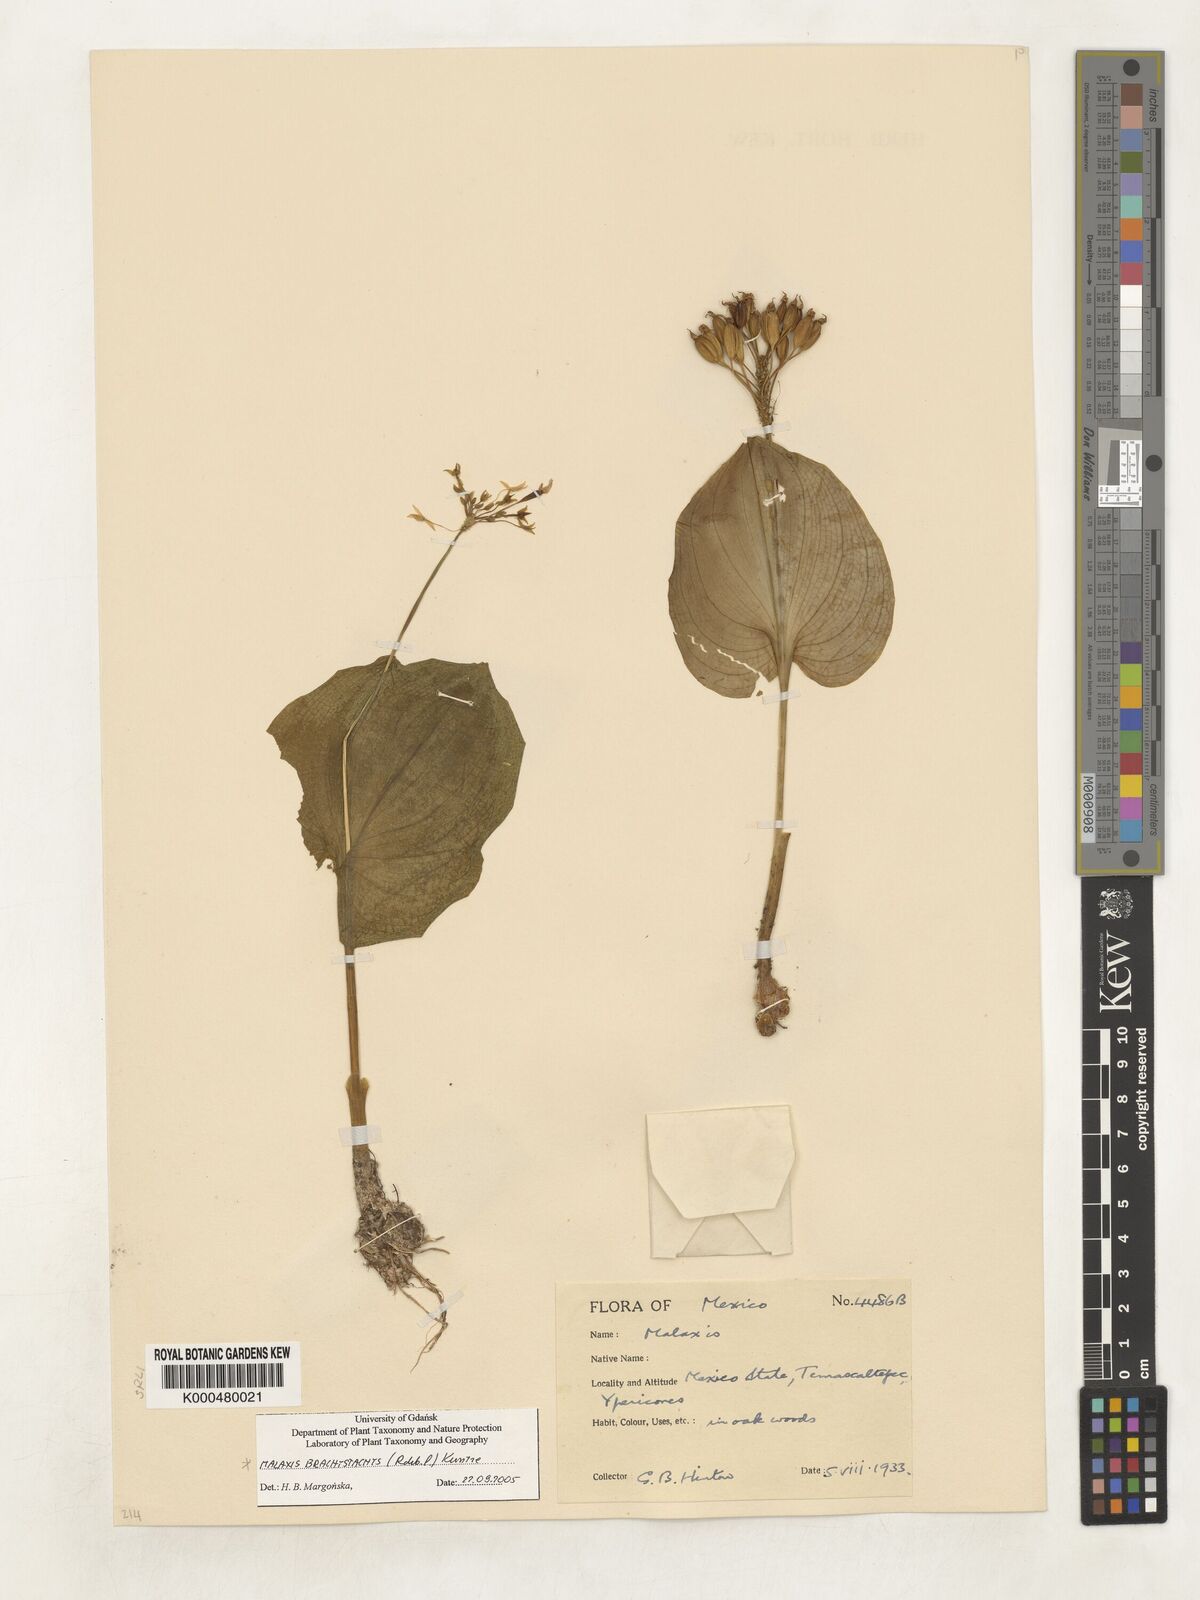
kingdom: Plantae
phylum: Tracheophyta
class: Liliopsida
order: Asparagales
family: Orchidaceae
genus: Malaxis
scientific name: Malaxis brachystachys
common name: Huachuca adder's-mouth
